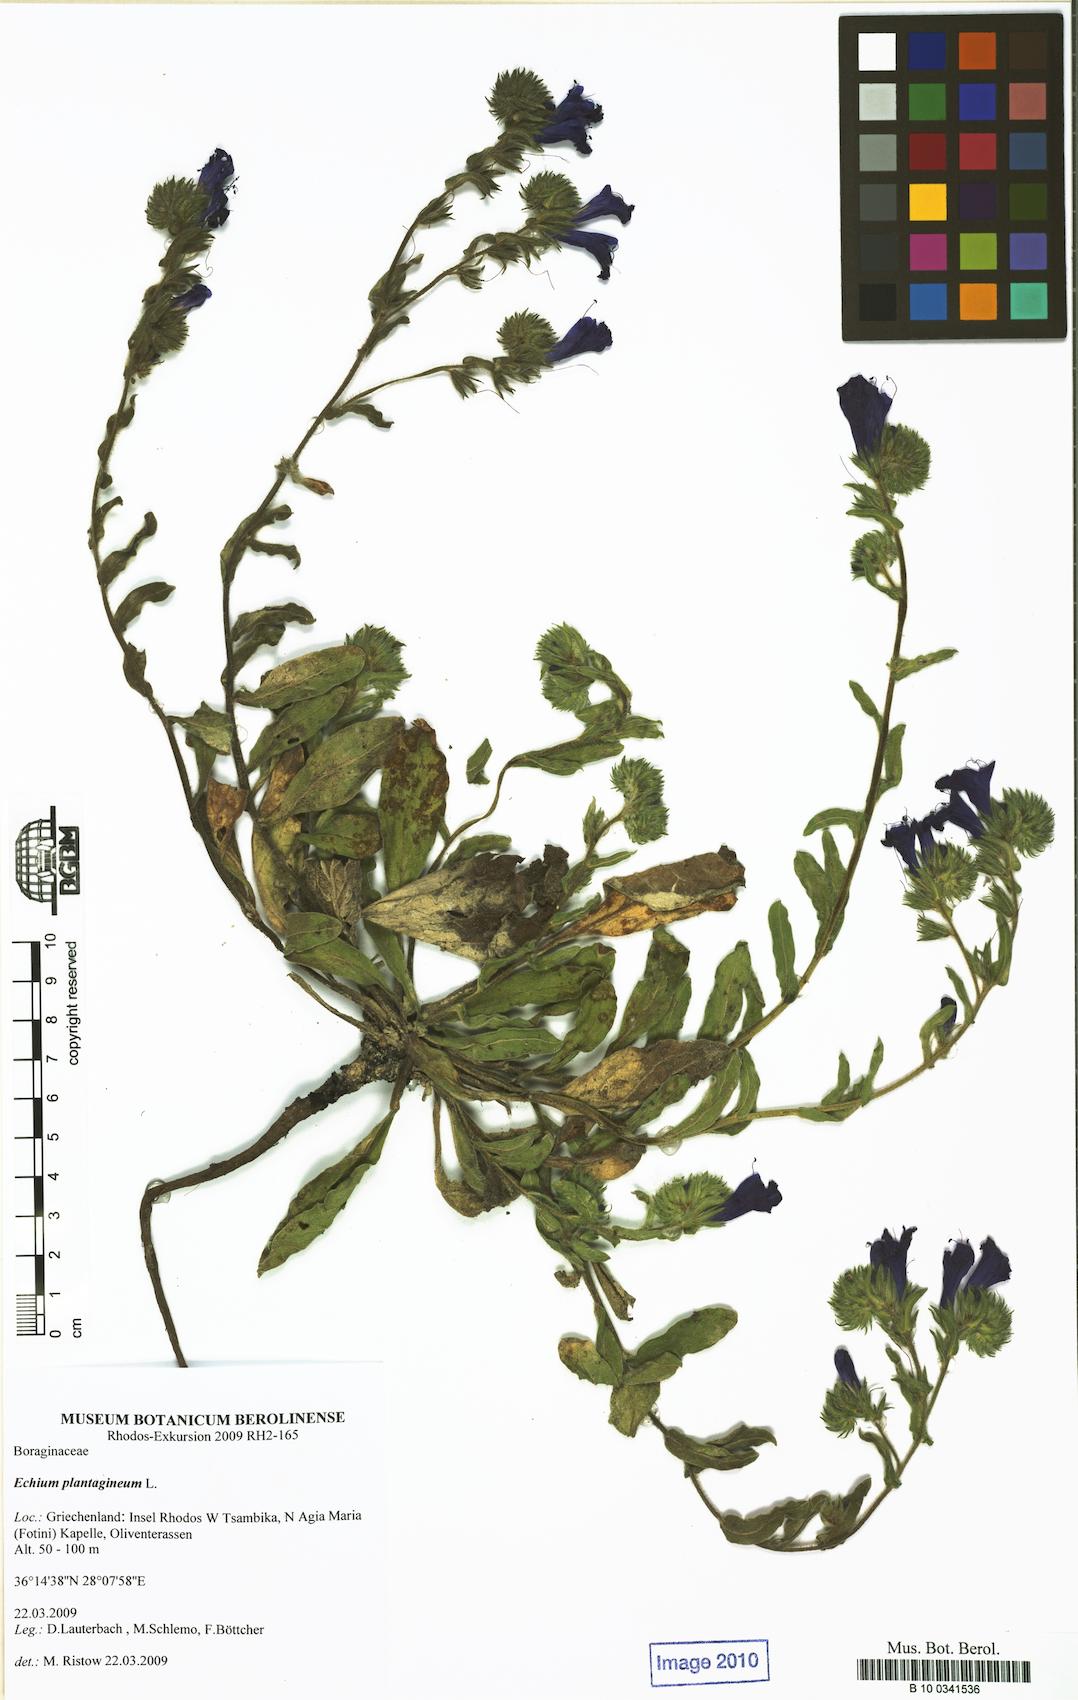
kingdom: Plantae
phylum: Tracheophyta
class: Magnoliopsida
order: Boraginales
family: Boraginaceae
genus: Echium
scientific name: Echium plantagineum
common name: Purple viper's-bugloss
